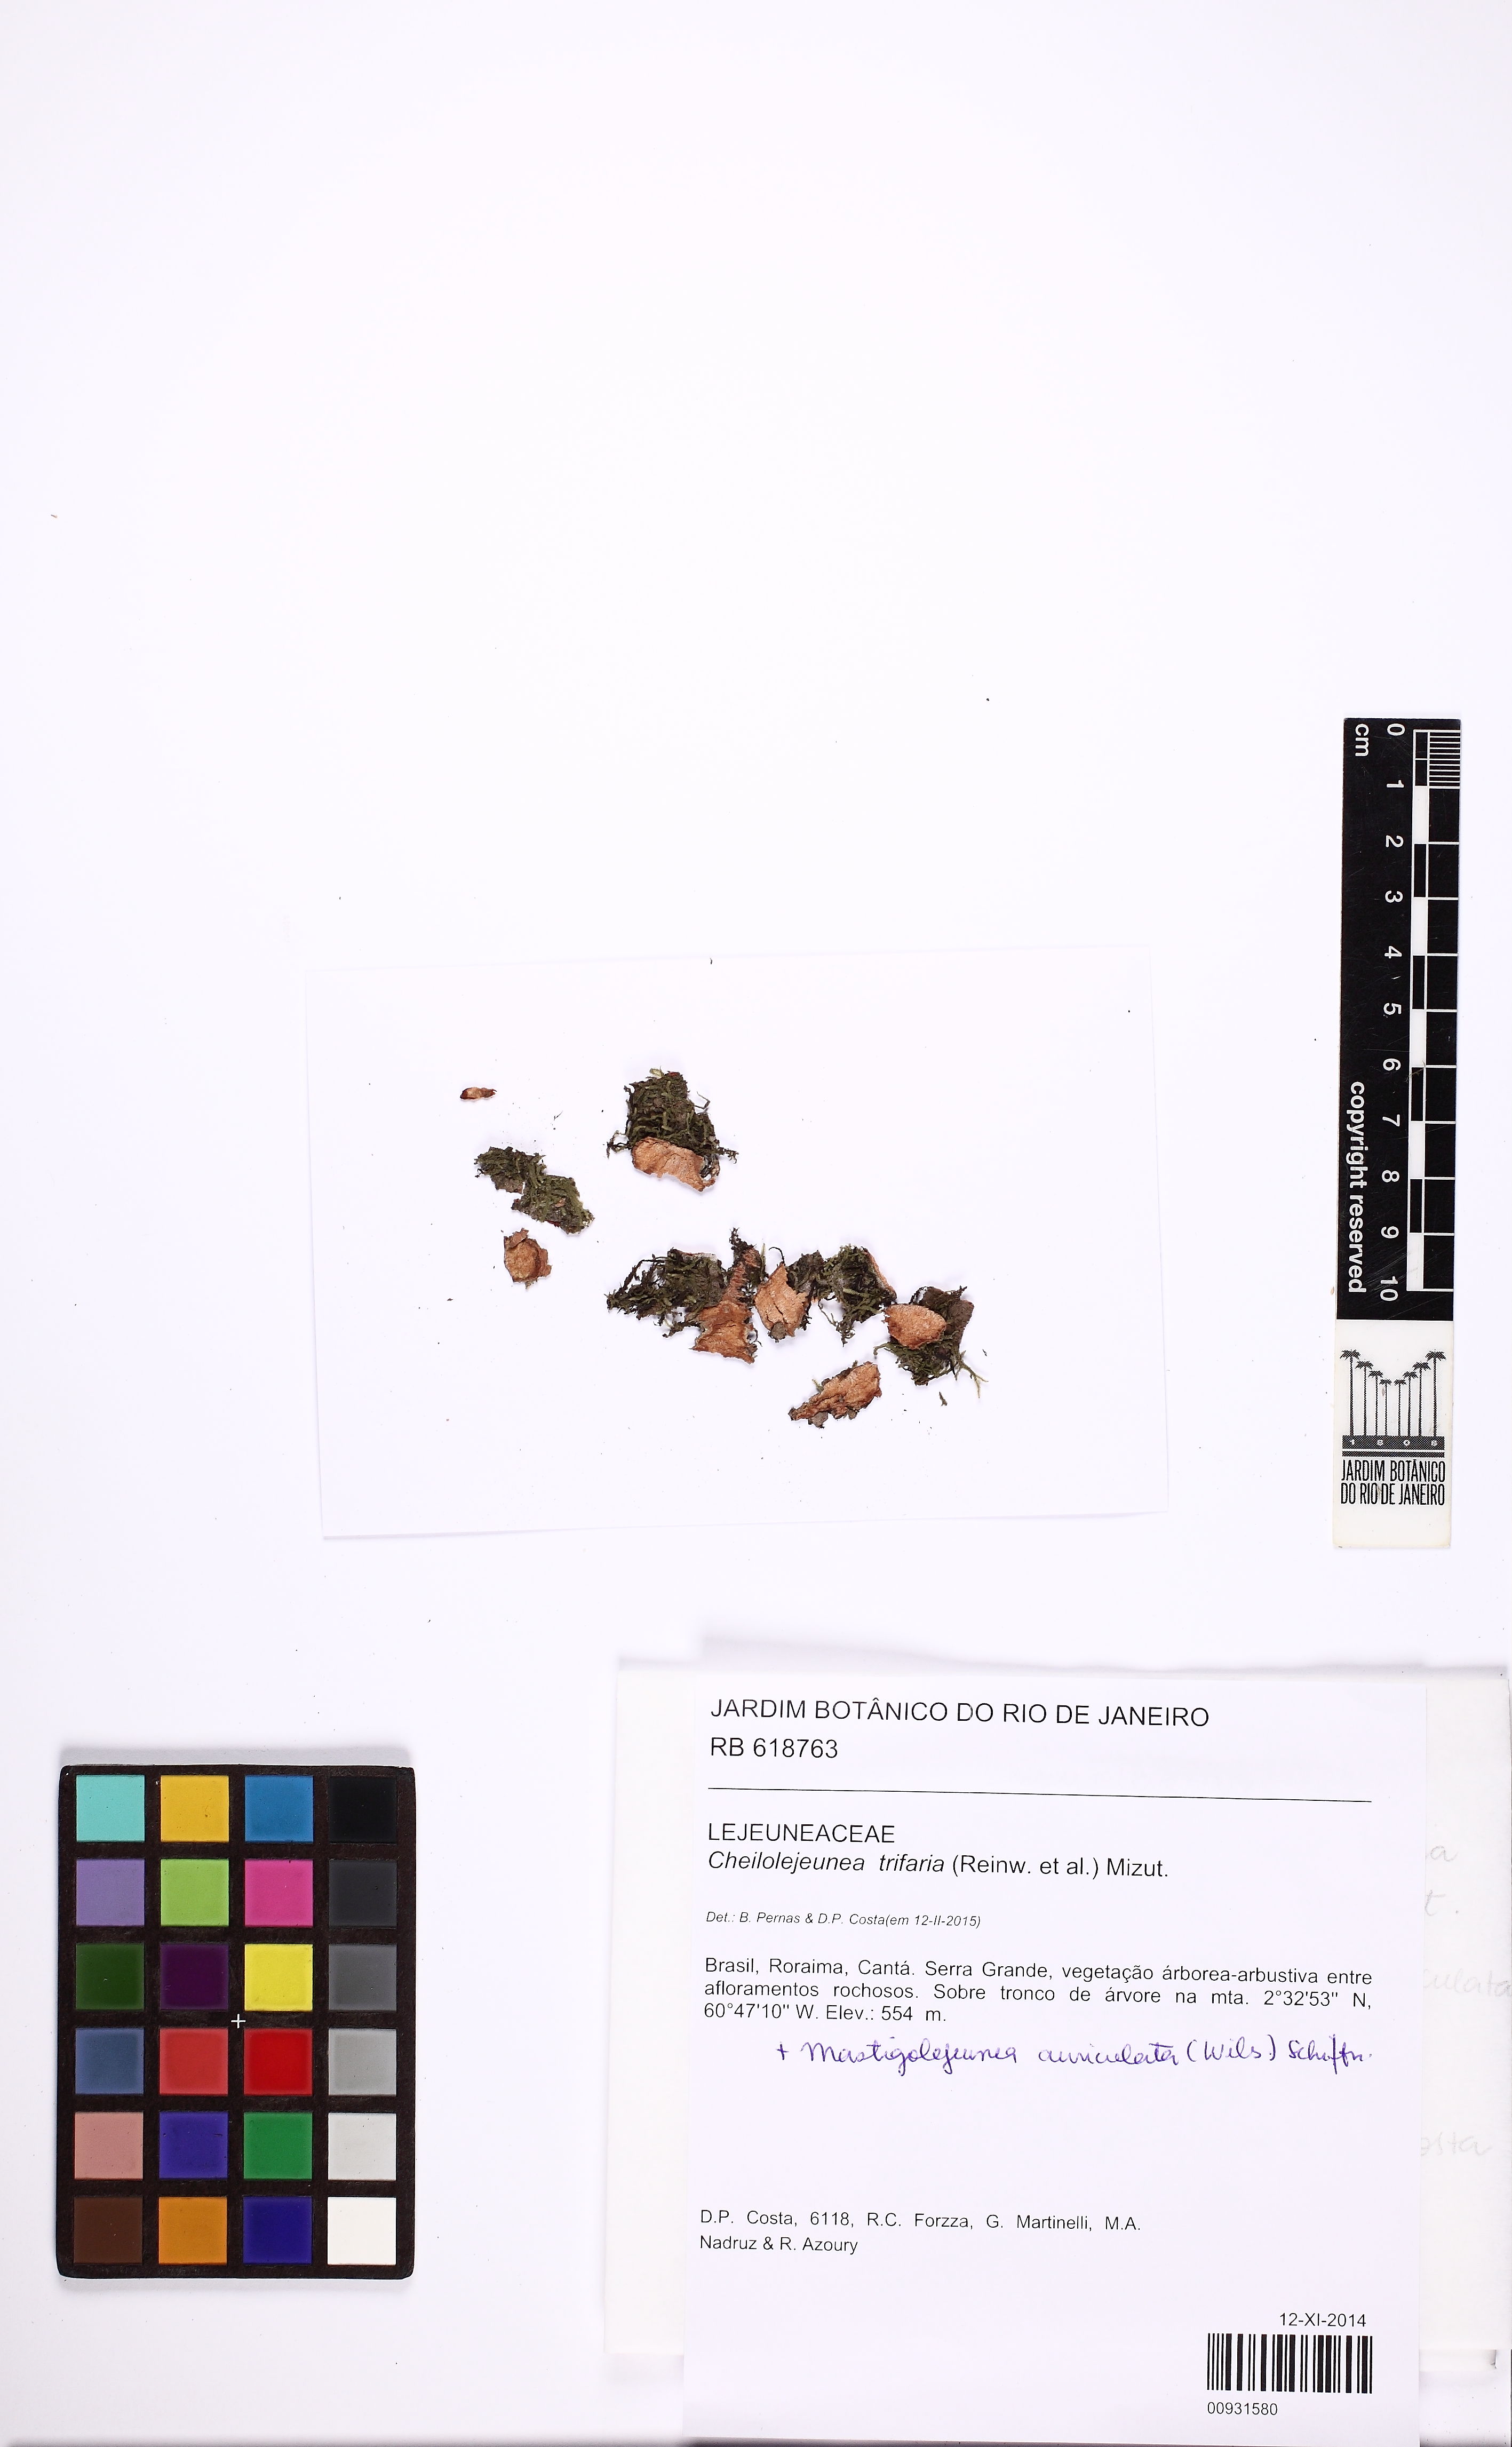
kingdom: Plantae
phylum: Marchantiophyta
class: Jungermanniopsida
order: Porellales
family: Lejeuneaceae
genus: Cheilolejeunea
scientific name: Cheilolejeunea trifaria
